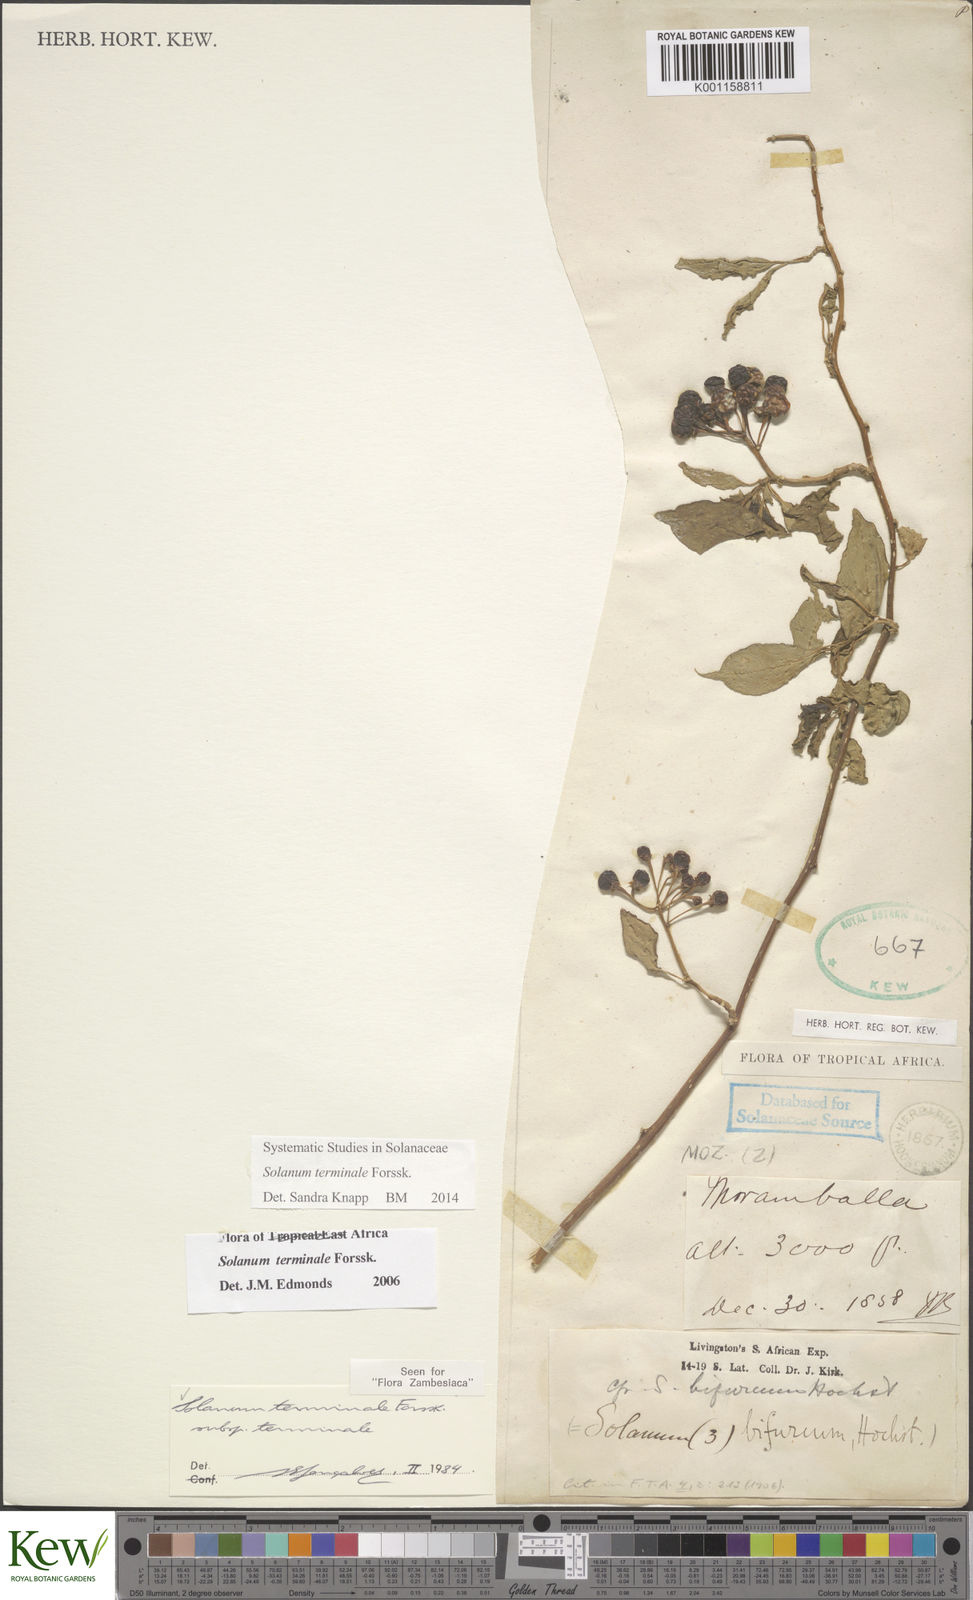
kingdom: Plantae
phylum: Tracheophyta
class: Magnoliopsida
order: Solanales
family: Solanaceae
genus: Solanum
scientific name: Solanum terminale
